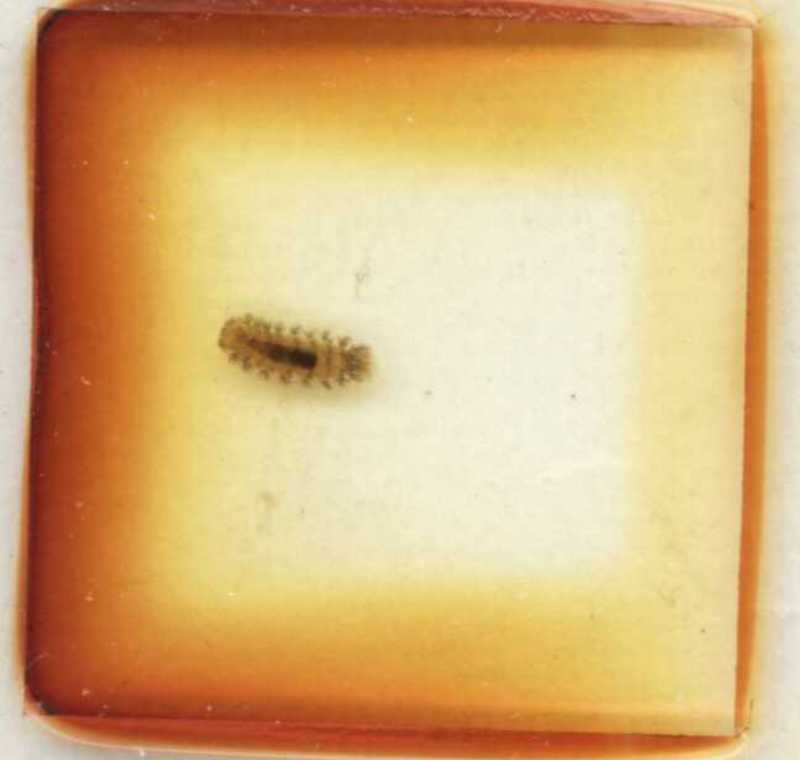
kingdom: Animalia
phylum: Arthropoda
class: Diplopoda
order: Polyxenida
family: Polyxenidae
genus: Polyxenus
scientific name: Polyxenus lagurus
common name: Bristly millipede
